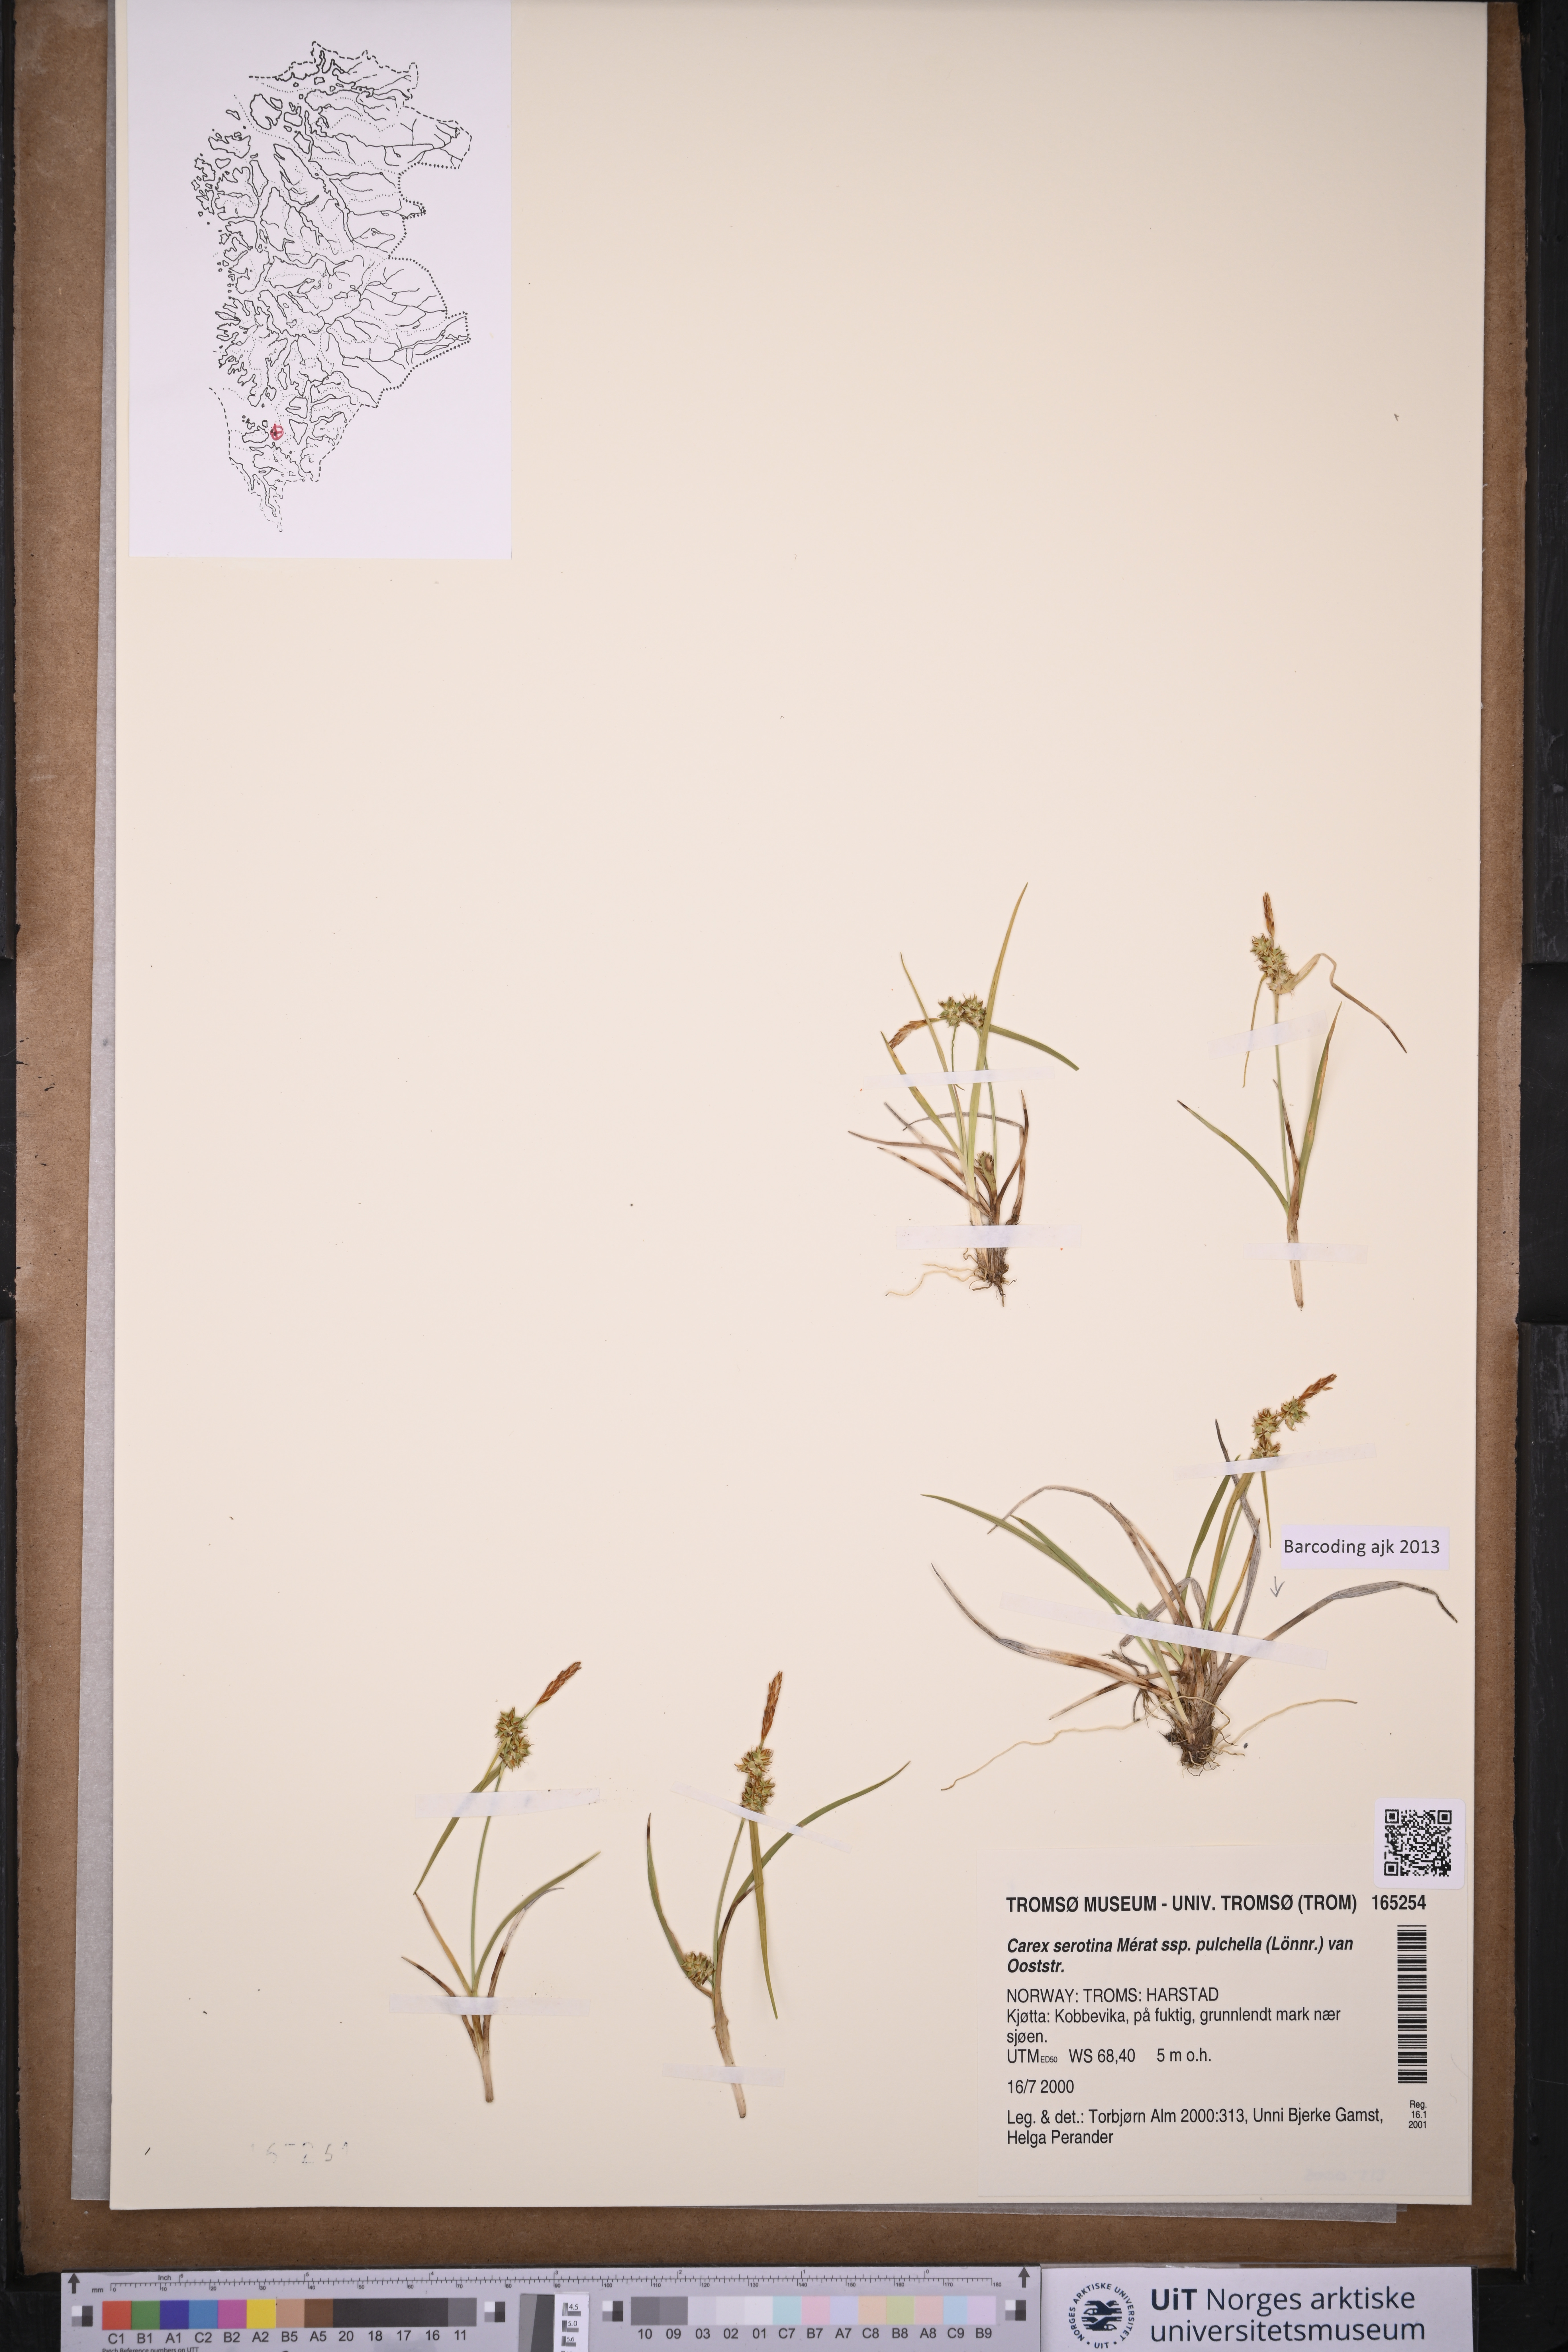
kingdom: Plantae
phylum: Tracheophyta
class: Liliopsida
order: Poales
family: Cyperaceae
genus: Carex
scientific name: Carex oederi
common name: Common & small-fruited yellow-sedge
